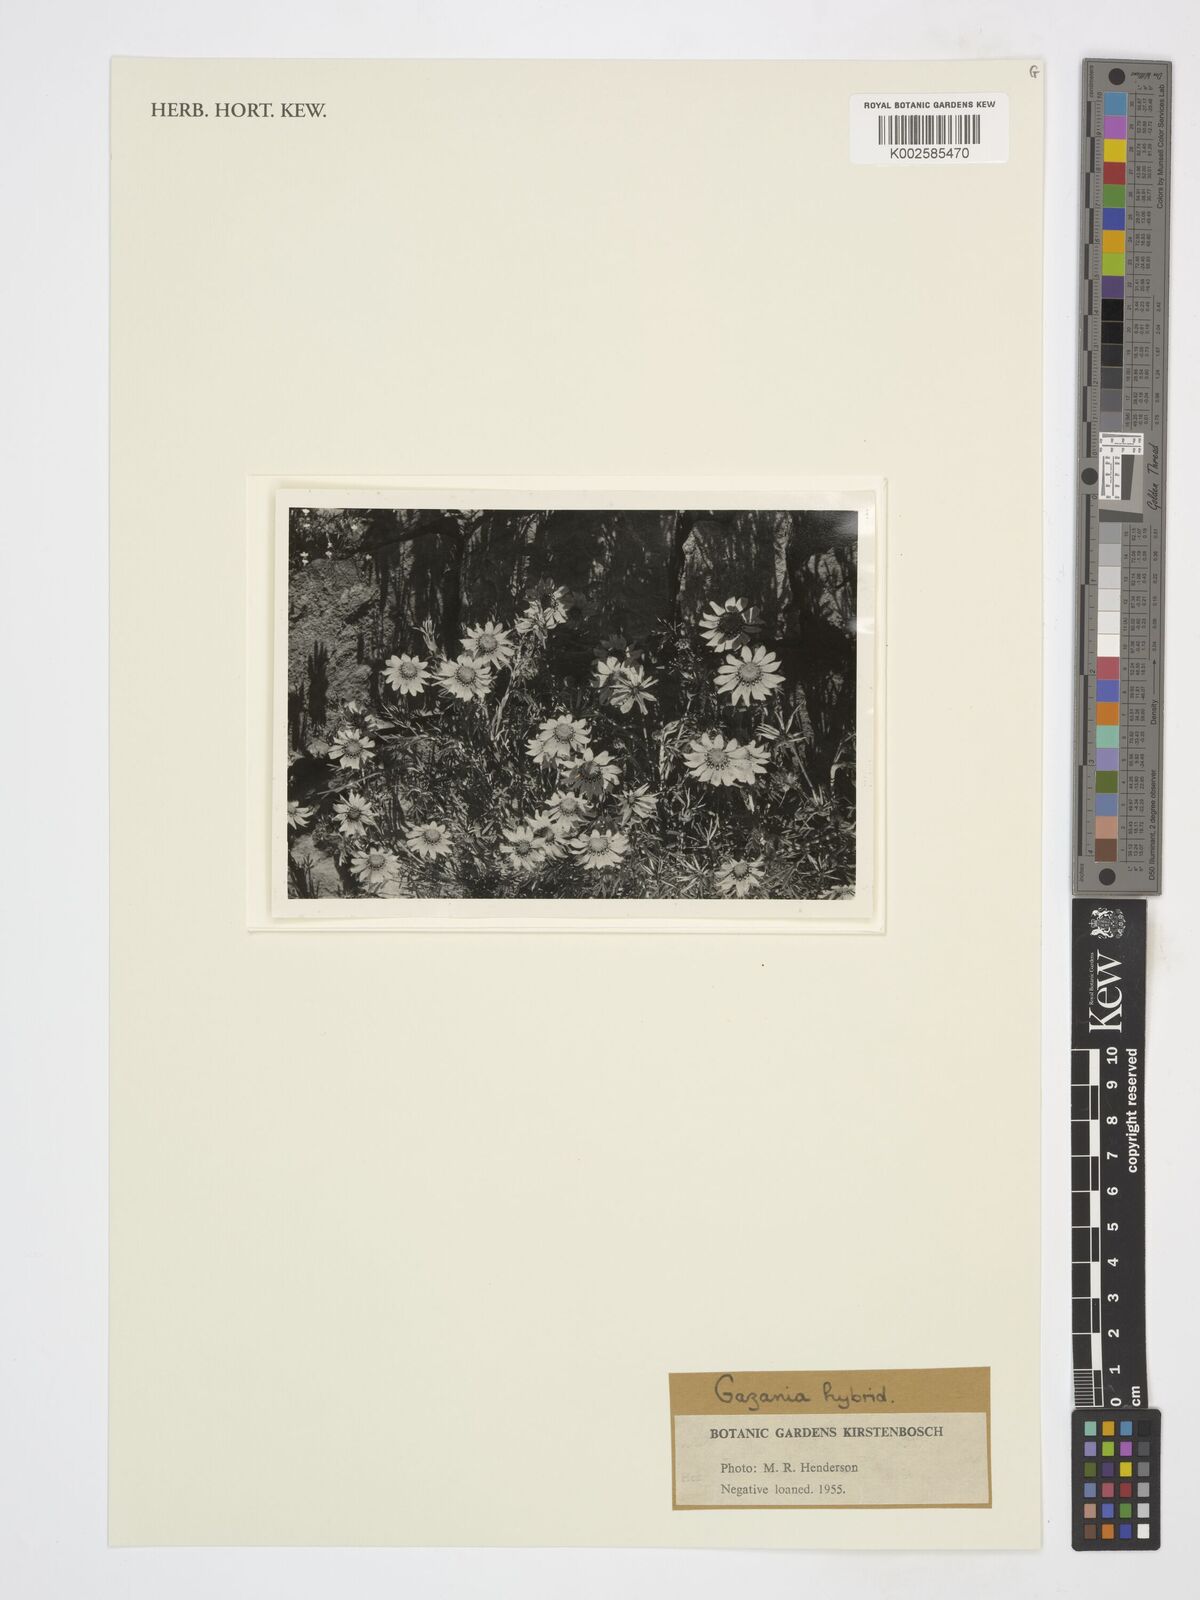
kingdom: Plantae
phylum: Tracheophyta
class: Magnoliopsida
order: Asterales
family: Asteraceae
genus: Gazania
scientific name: Gazania
